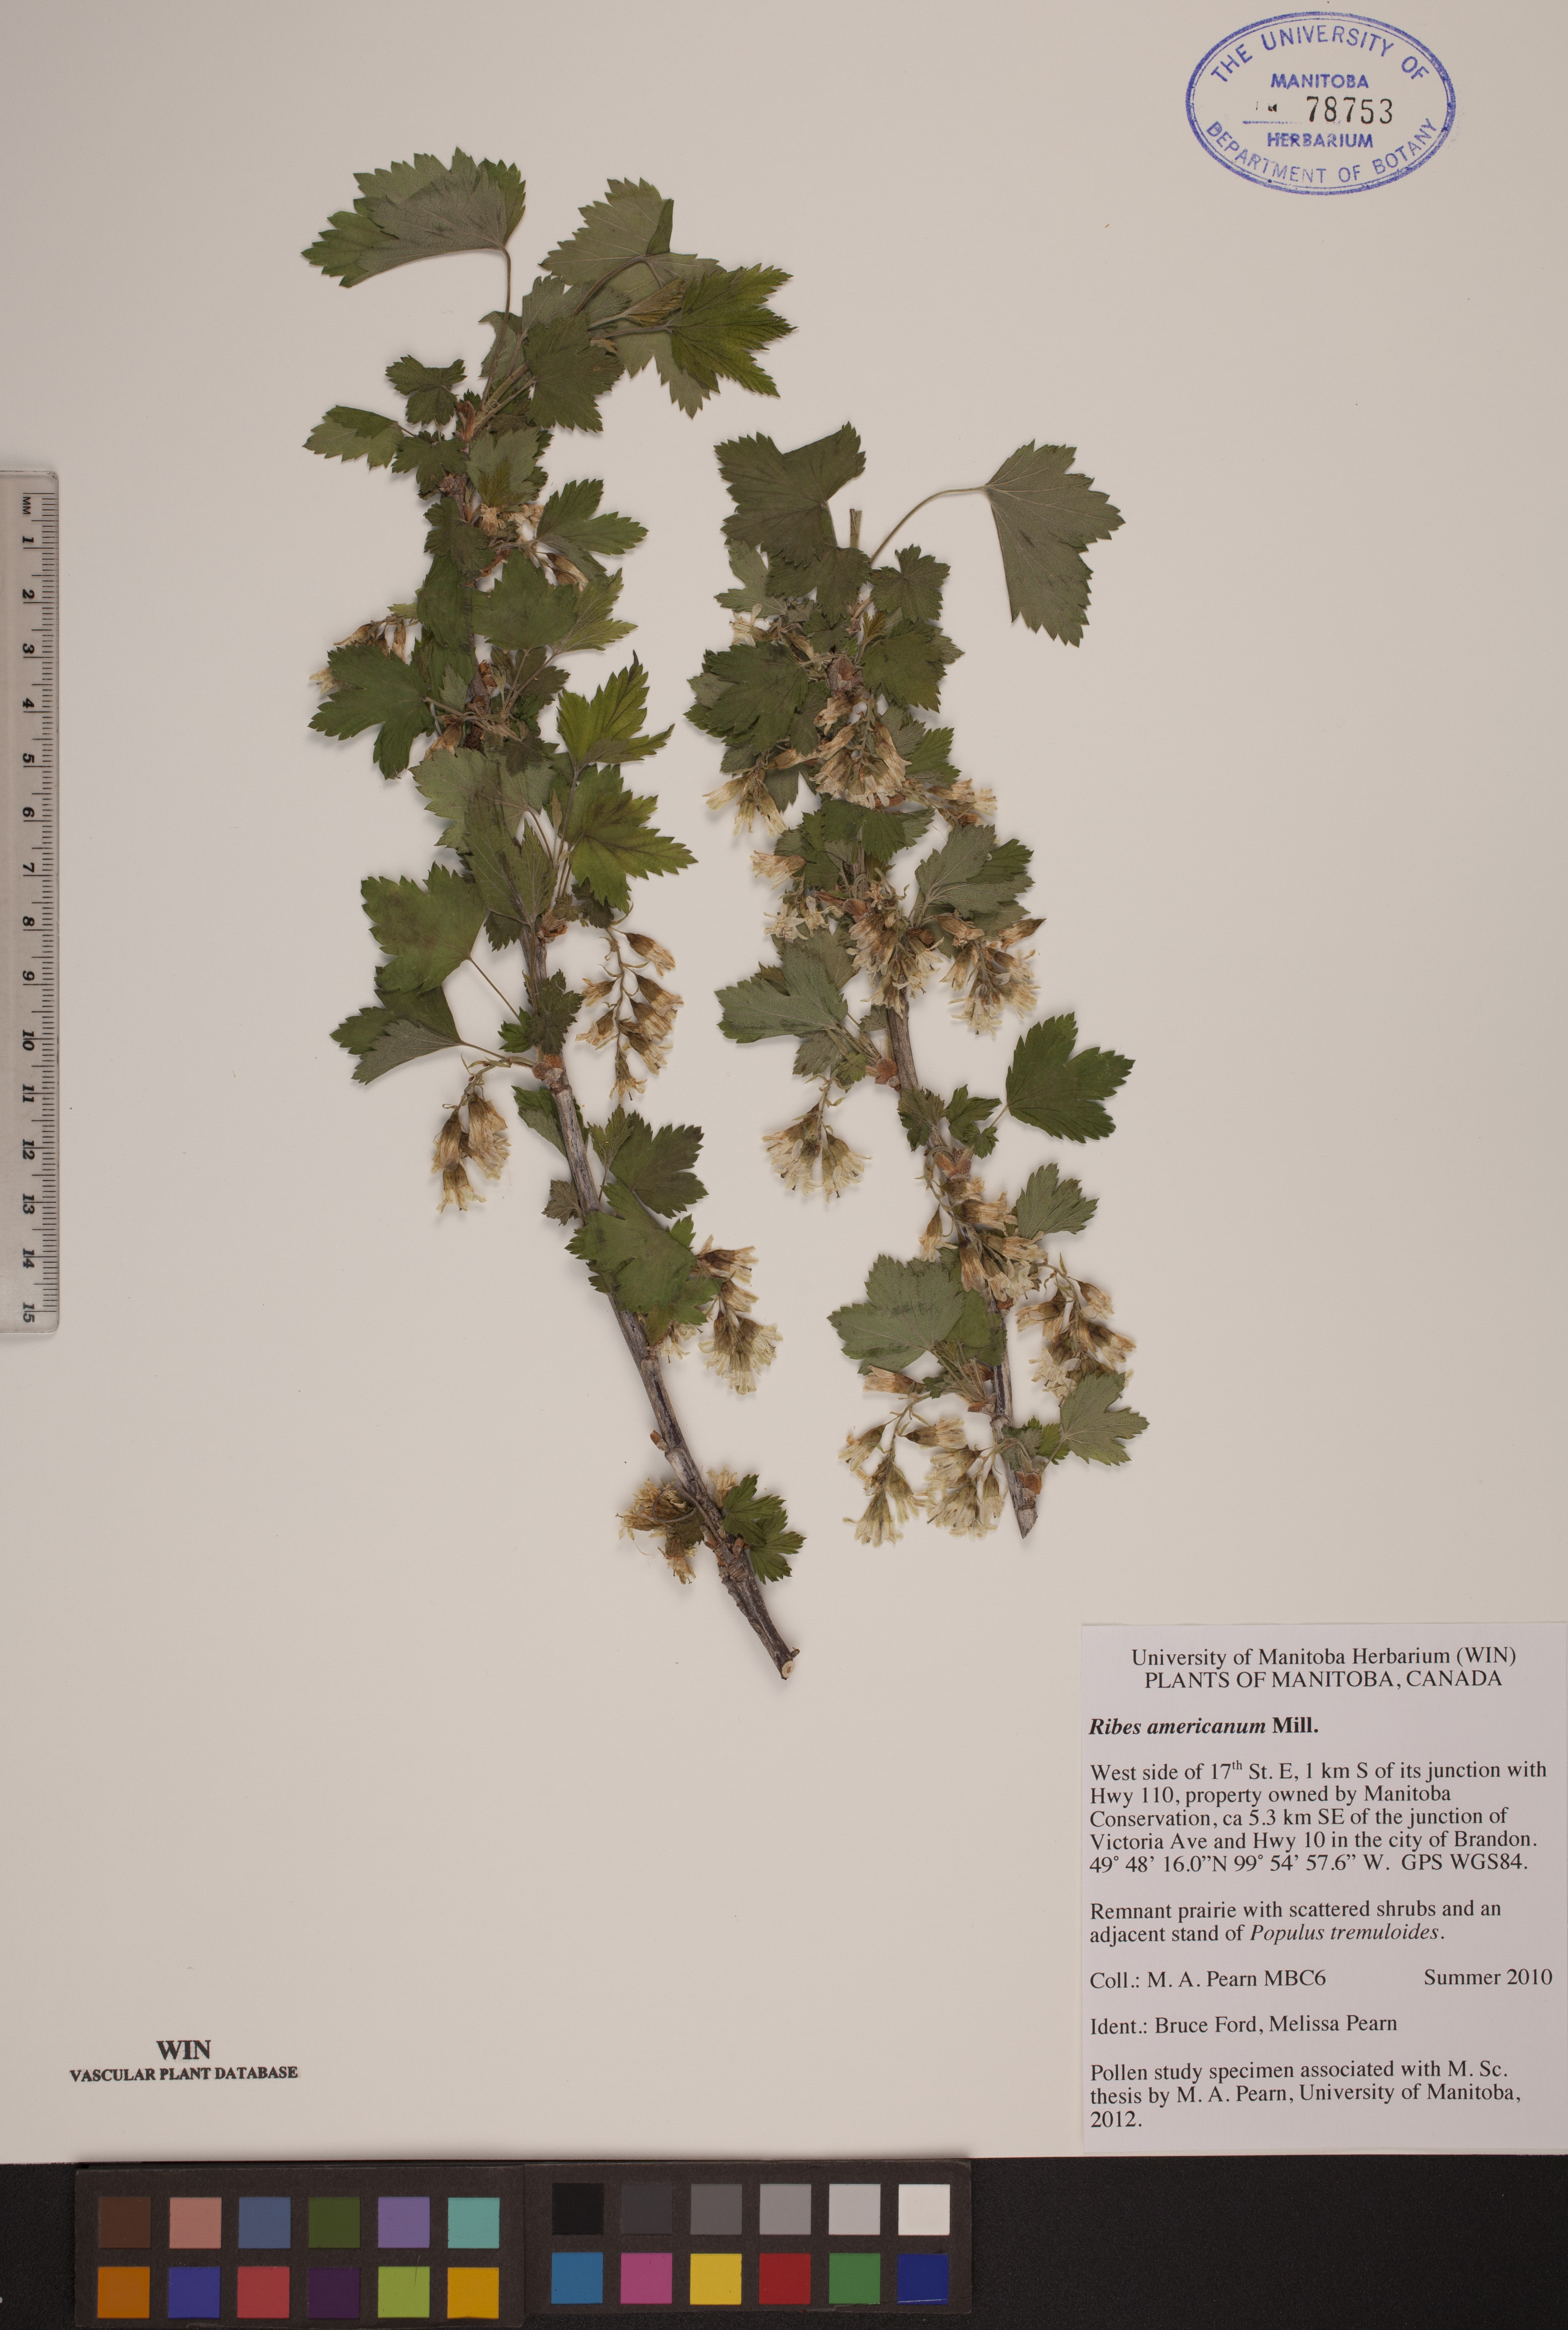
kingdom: Plantae
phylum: Tracheophyta
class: Magnoliopsida
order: Saxifragales
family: Grossulariaceae
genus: Ribes
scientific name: Ribes americanum
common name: American black currant
